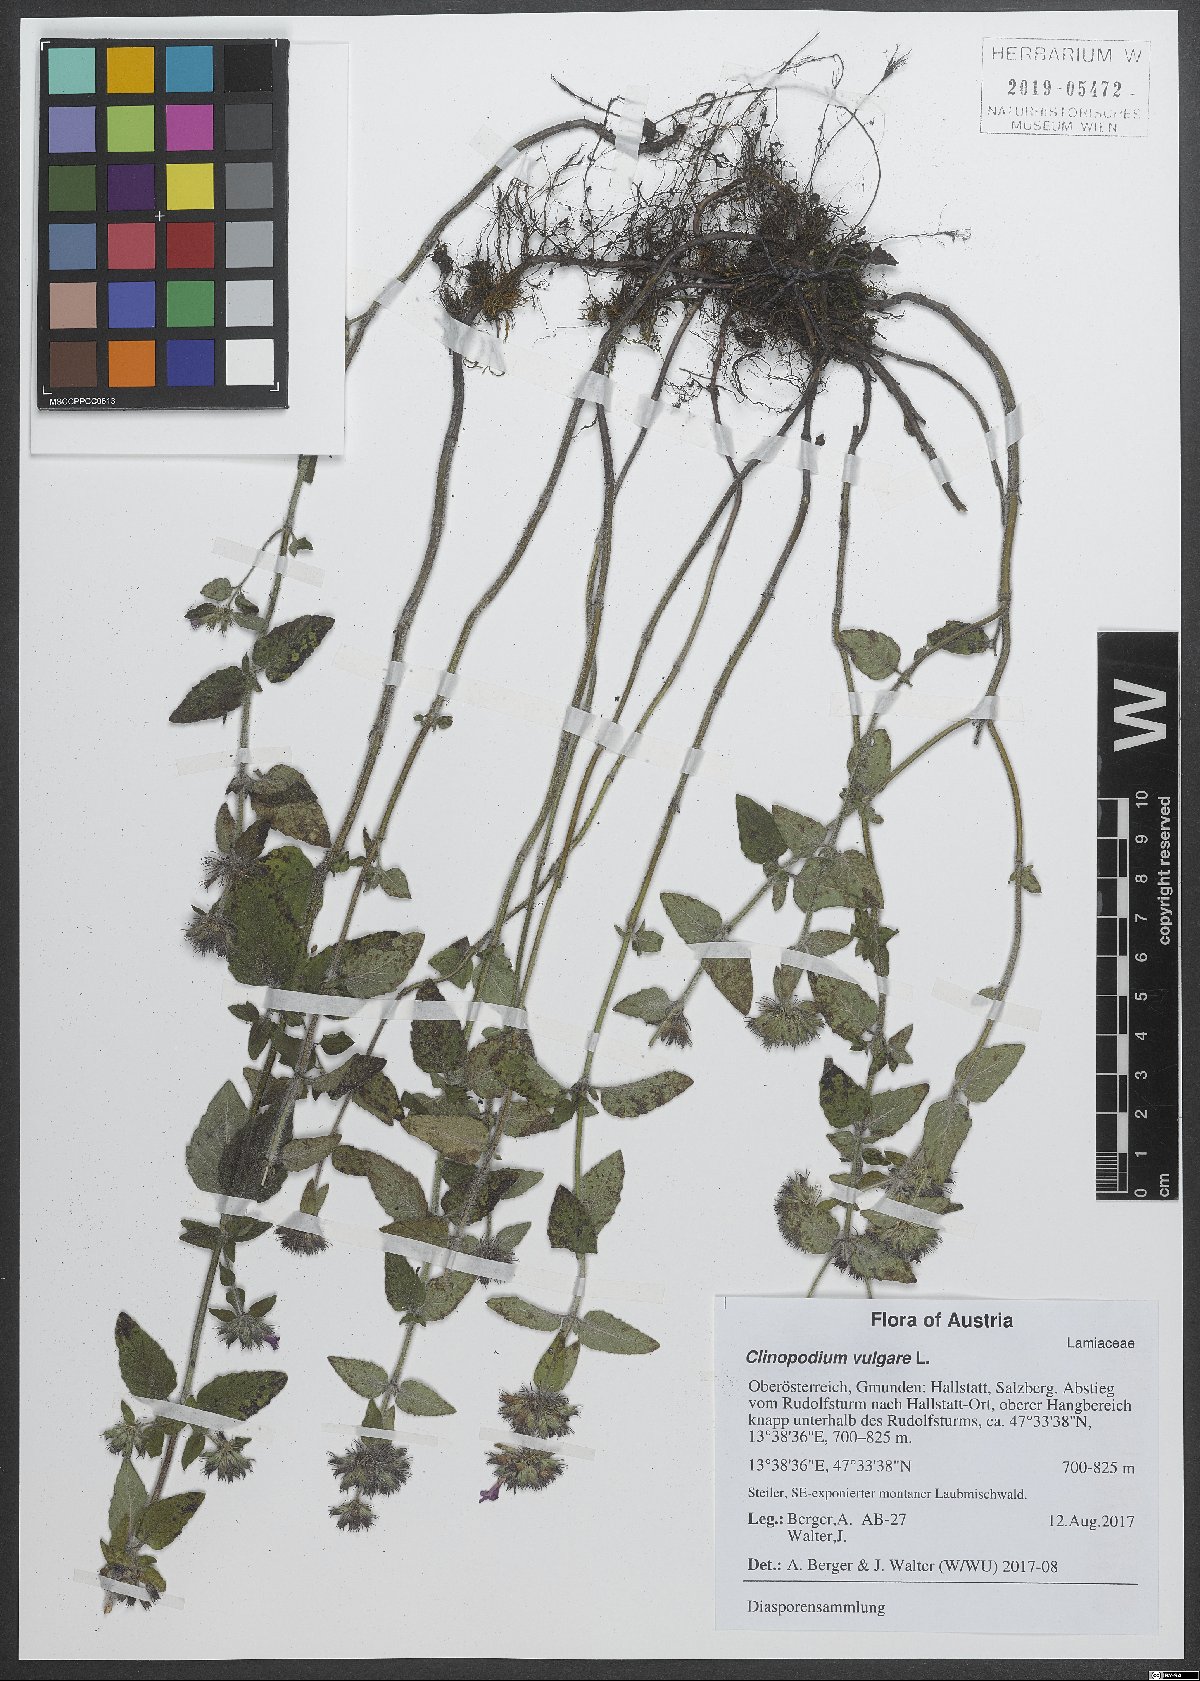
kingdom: Plantae
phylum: Tracheophyta
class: Magnoliopsida
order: Lamiales
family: Lamiaceae
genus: Clinopodium
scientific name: Clinopodium vulgare
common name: Wild basil
